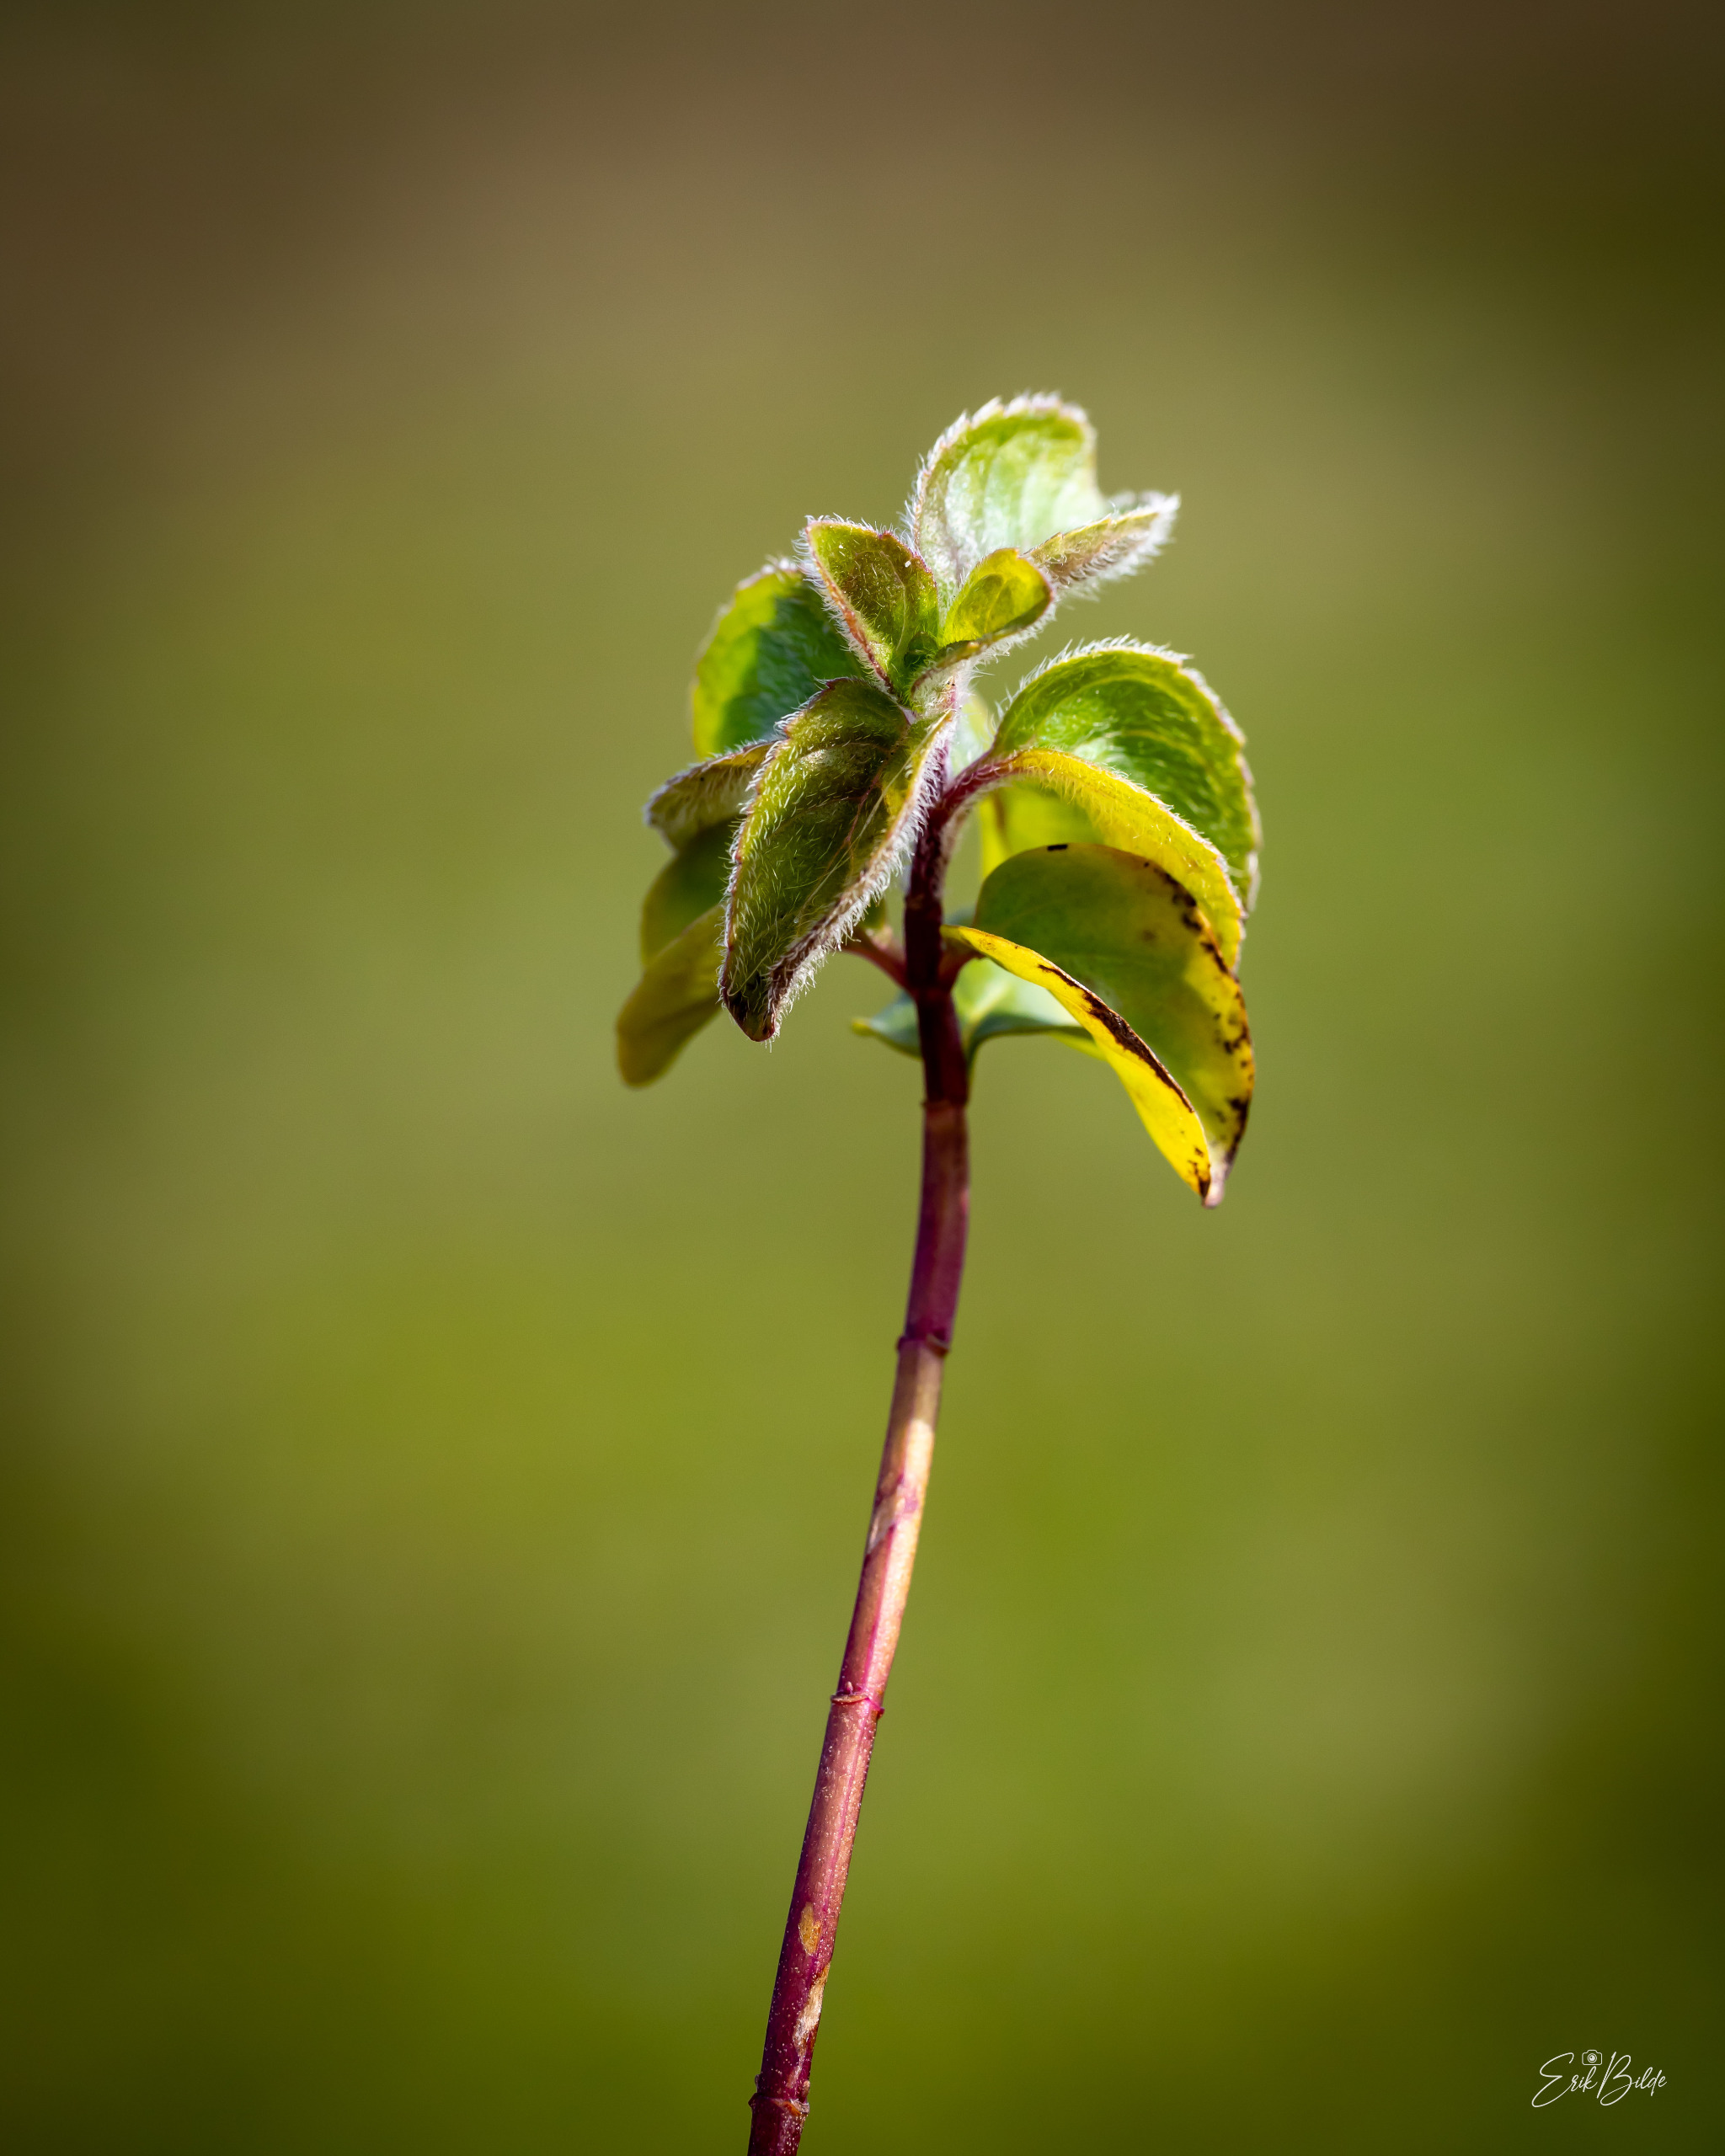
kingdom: Plantae
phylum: Tracheophyta
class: Magnoliopsida
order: Lamiales
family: Lamiaceae
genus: Mentha
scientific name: Mentha aquatica
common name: Vand-mynte
